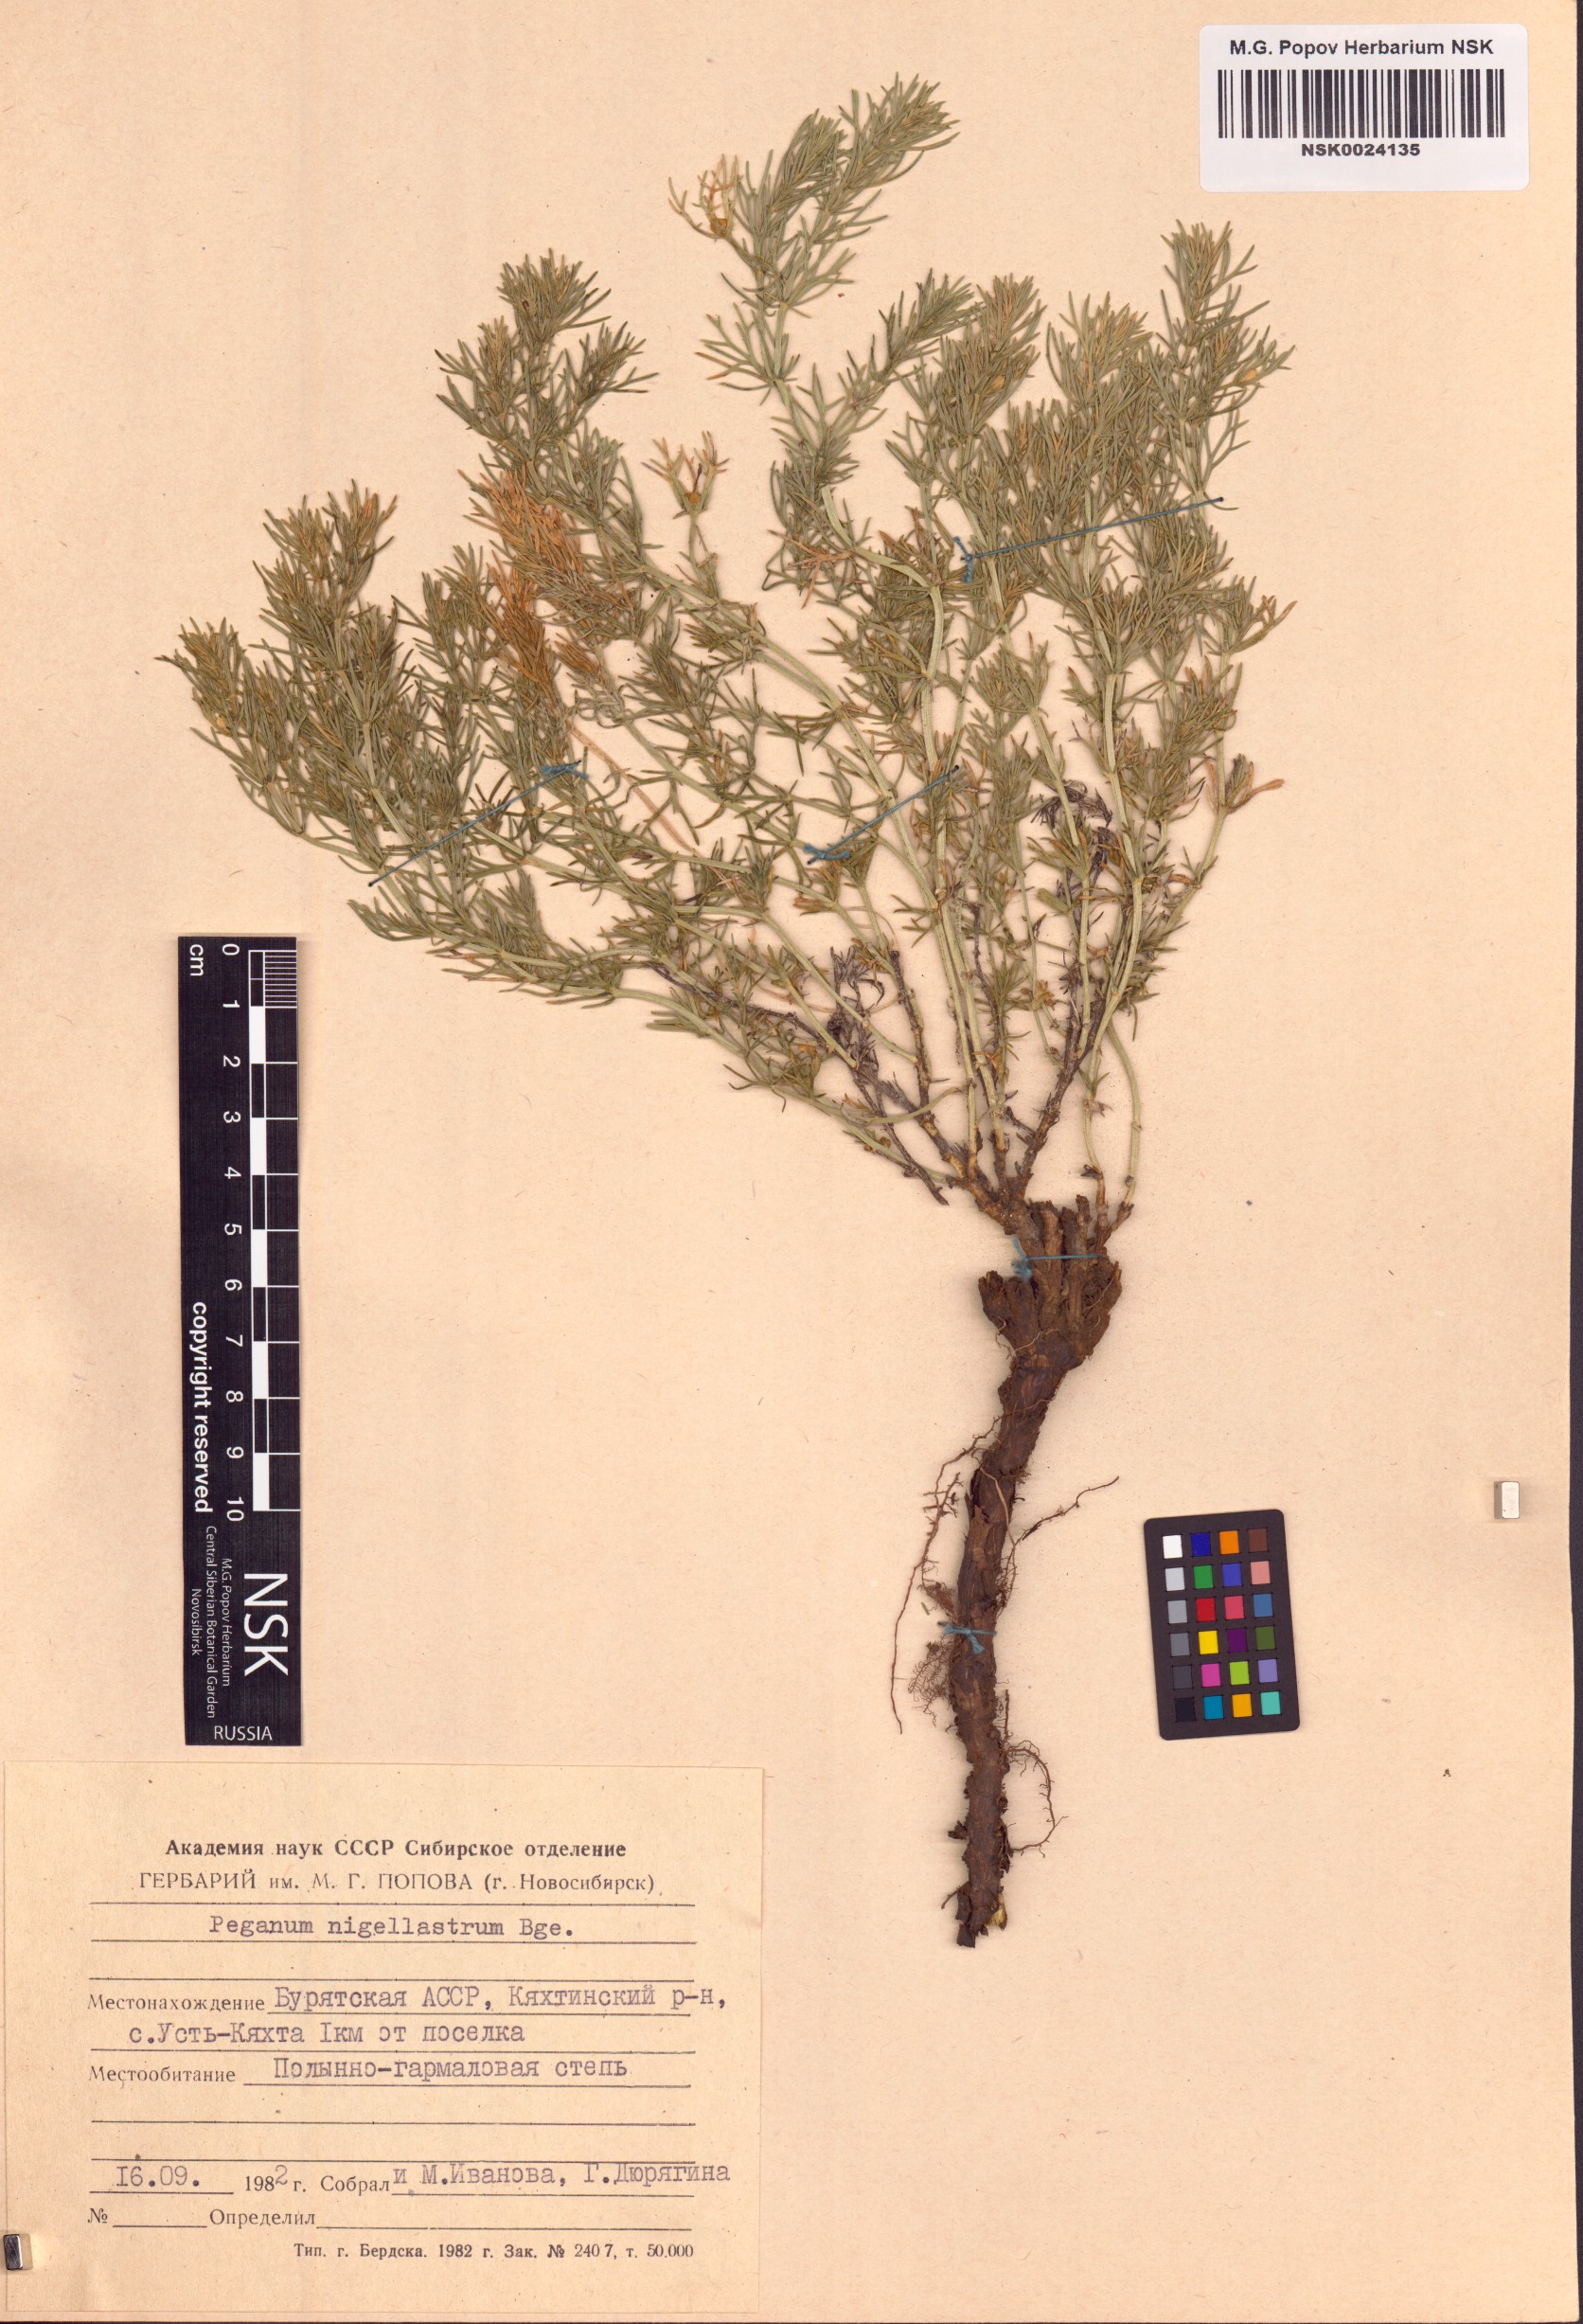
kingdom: Plantae
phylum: Tracheophyta
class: Magnoliopsida
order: Sapindales
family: Tetradiclidaceae
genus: Peganum
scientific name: Peganum nigellastrum
